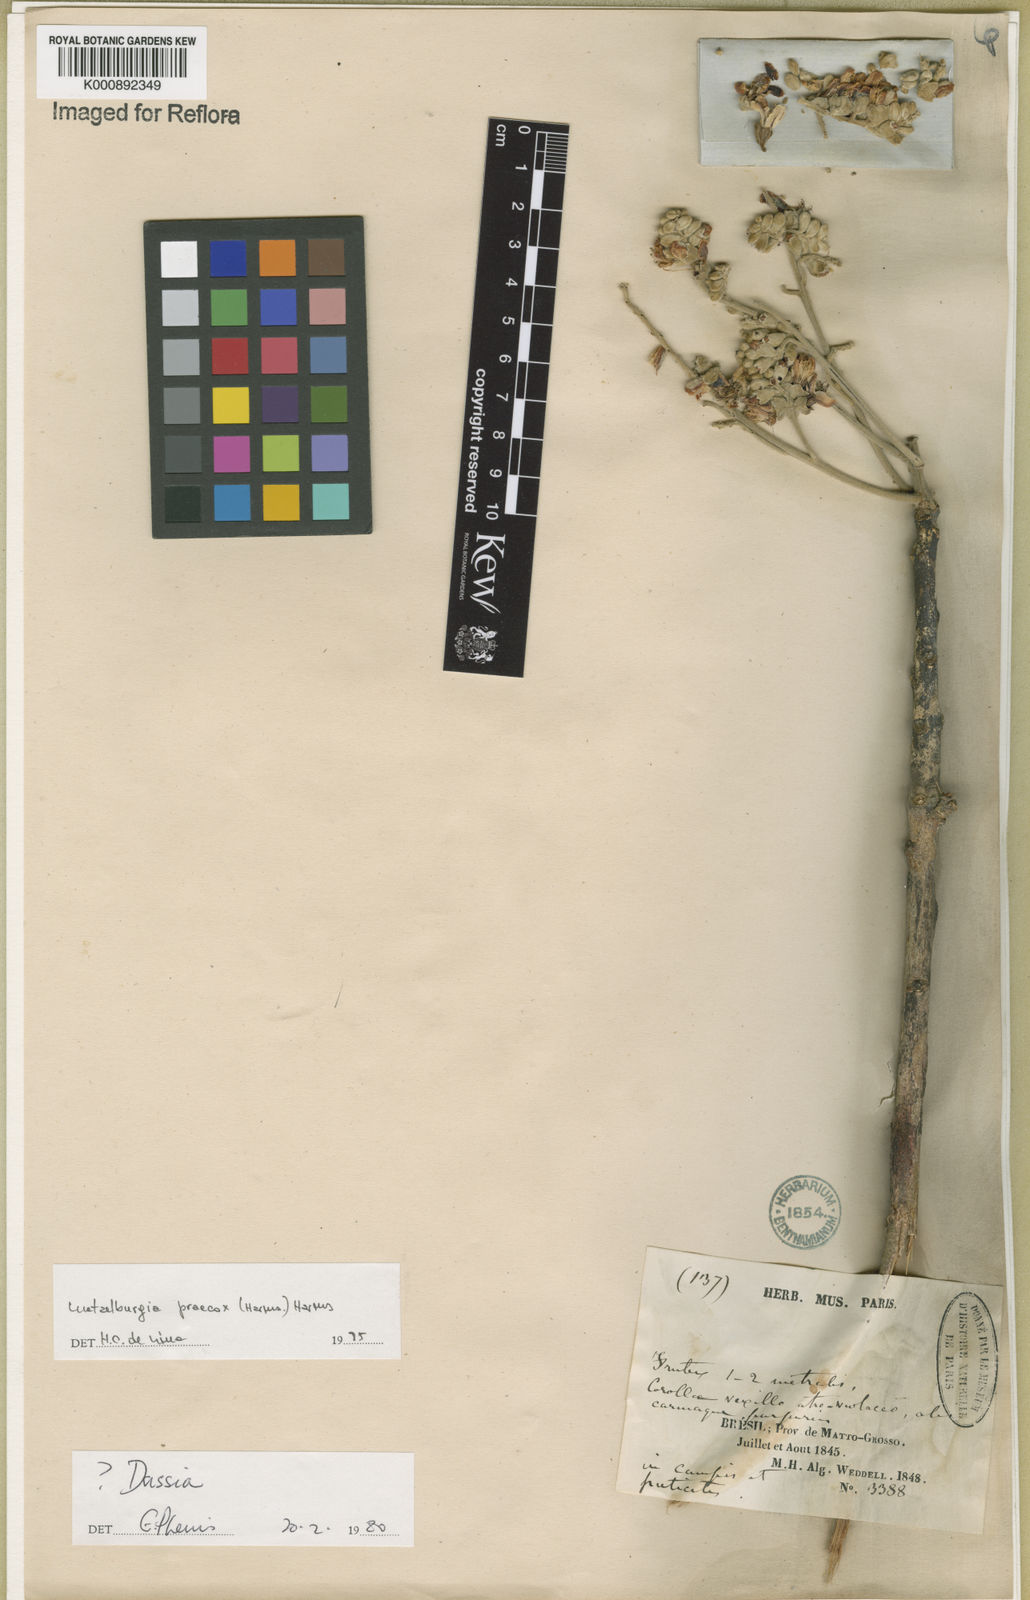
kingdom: Plantae
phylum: Tracheophyta
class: Magnoliopsida
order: Fabales
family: Fabaceae
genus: Luetzelburgia
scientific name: Luetzelburgia praecox
